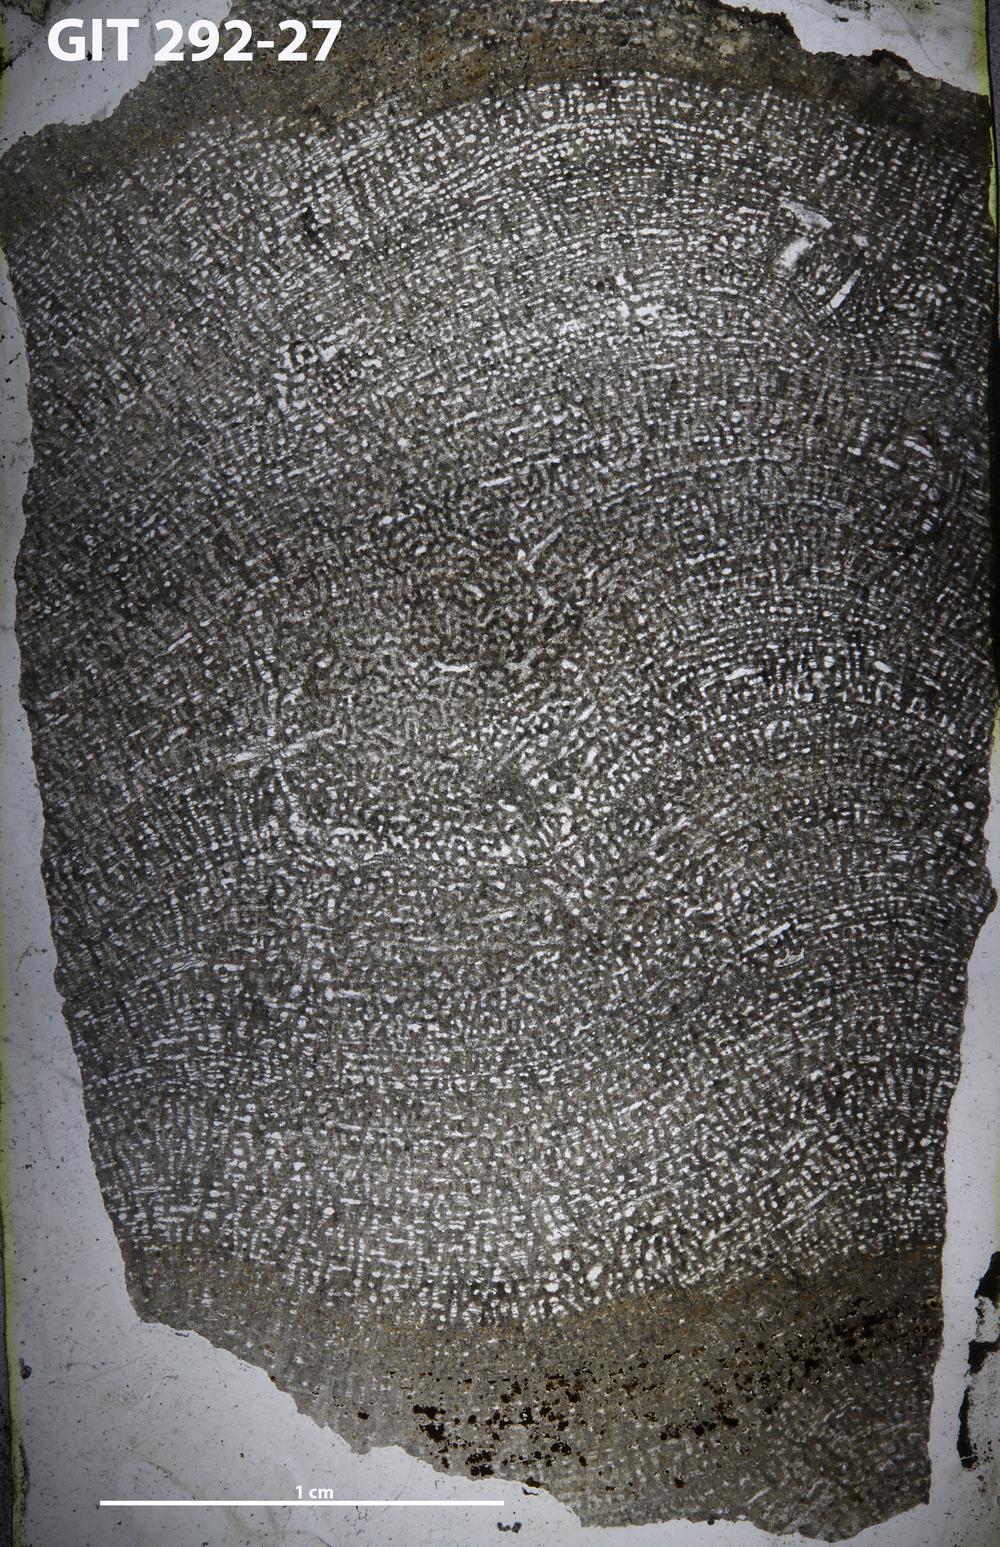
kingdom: Animalia
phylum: Porifera
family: Syringostromellidae
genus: Syringostromella
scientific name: Syringostromella
